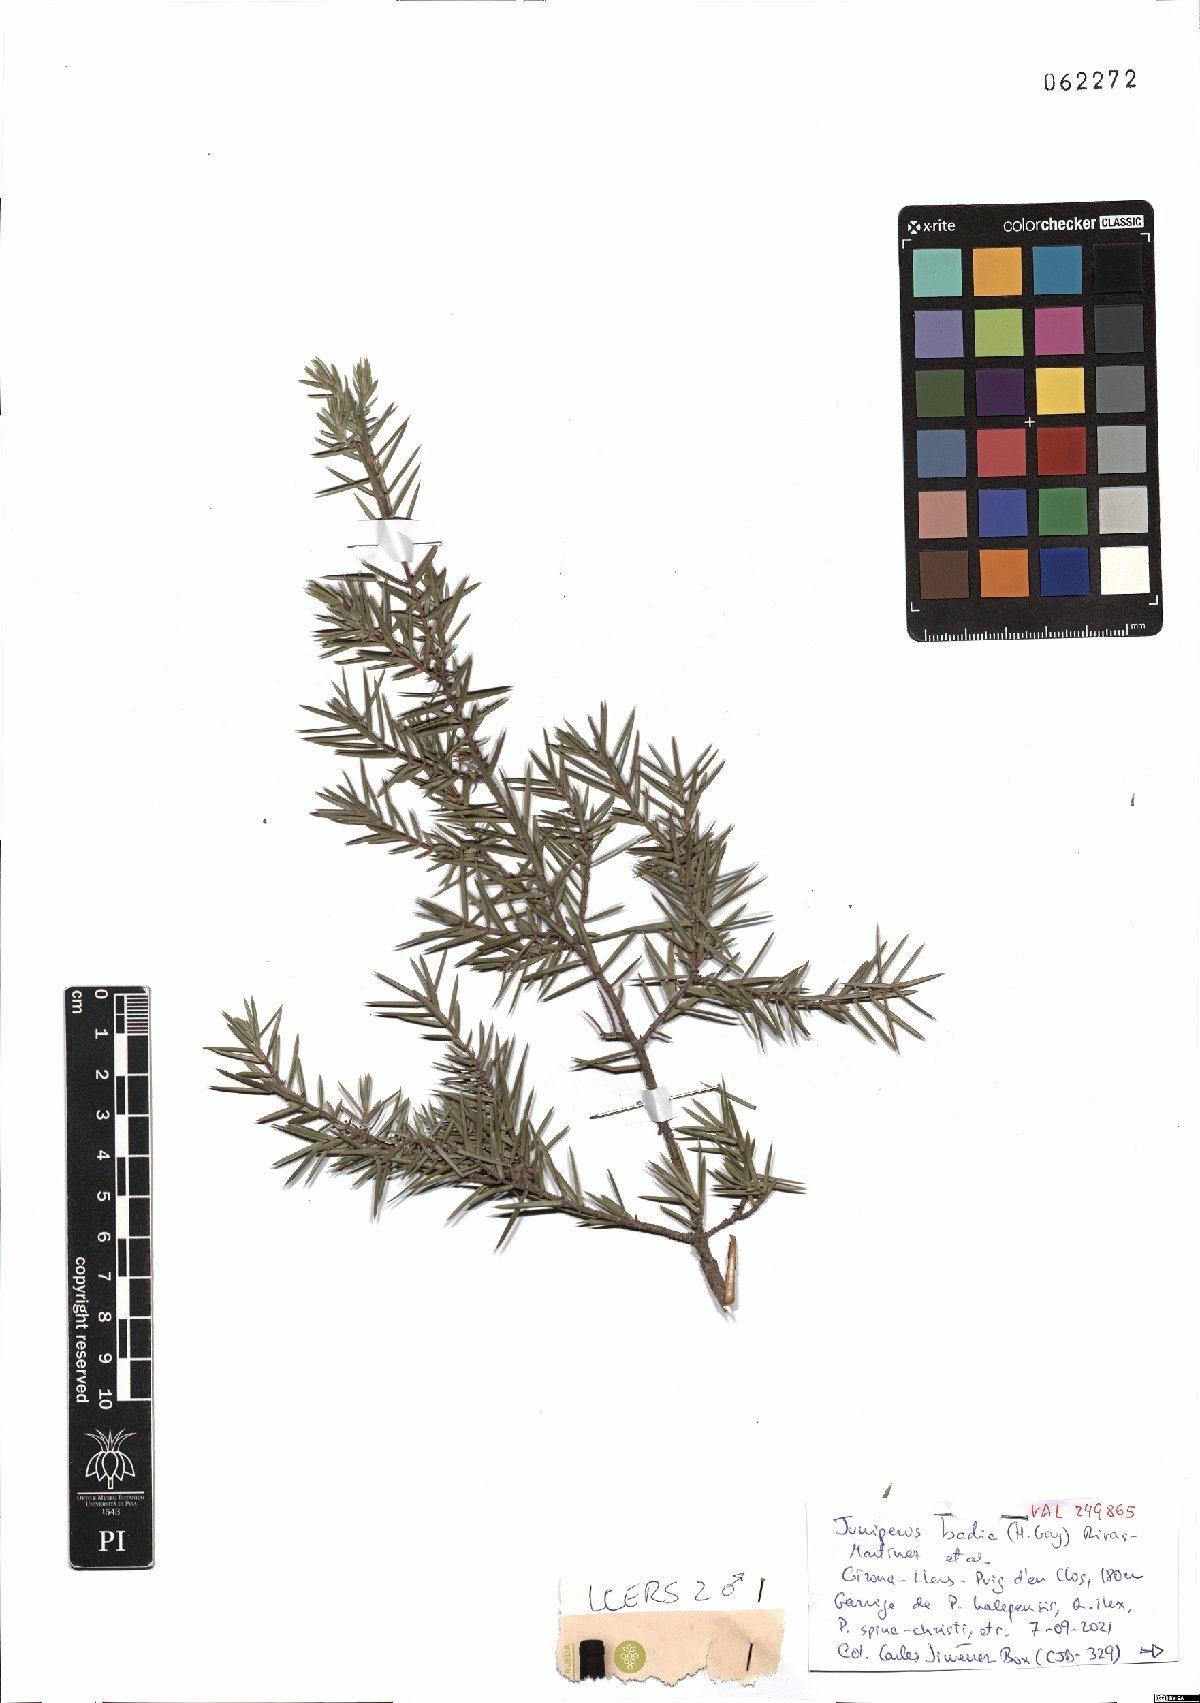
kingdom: Plantae
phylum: Tracheophyta
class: Pinopsida
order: Pinales
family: Cupressaceae
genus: Juniperus
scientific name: Juniperus oxycedrus
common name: Prickly juniper
